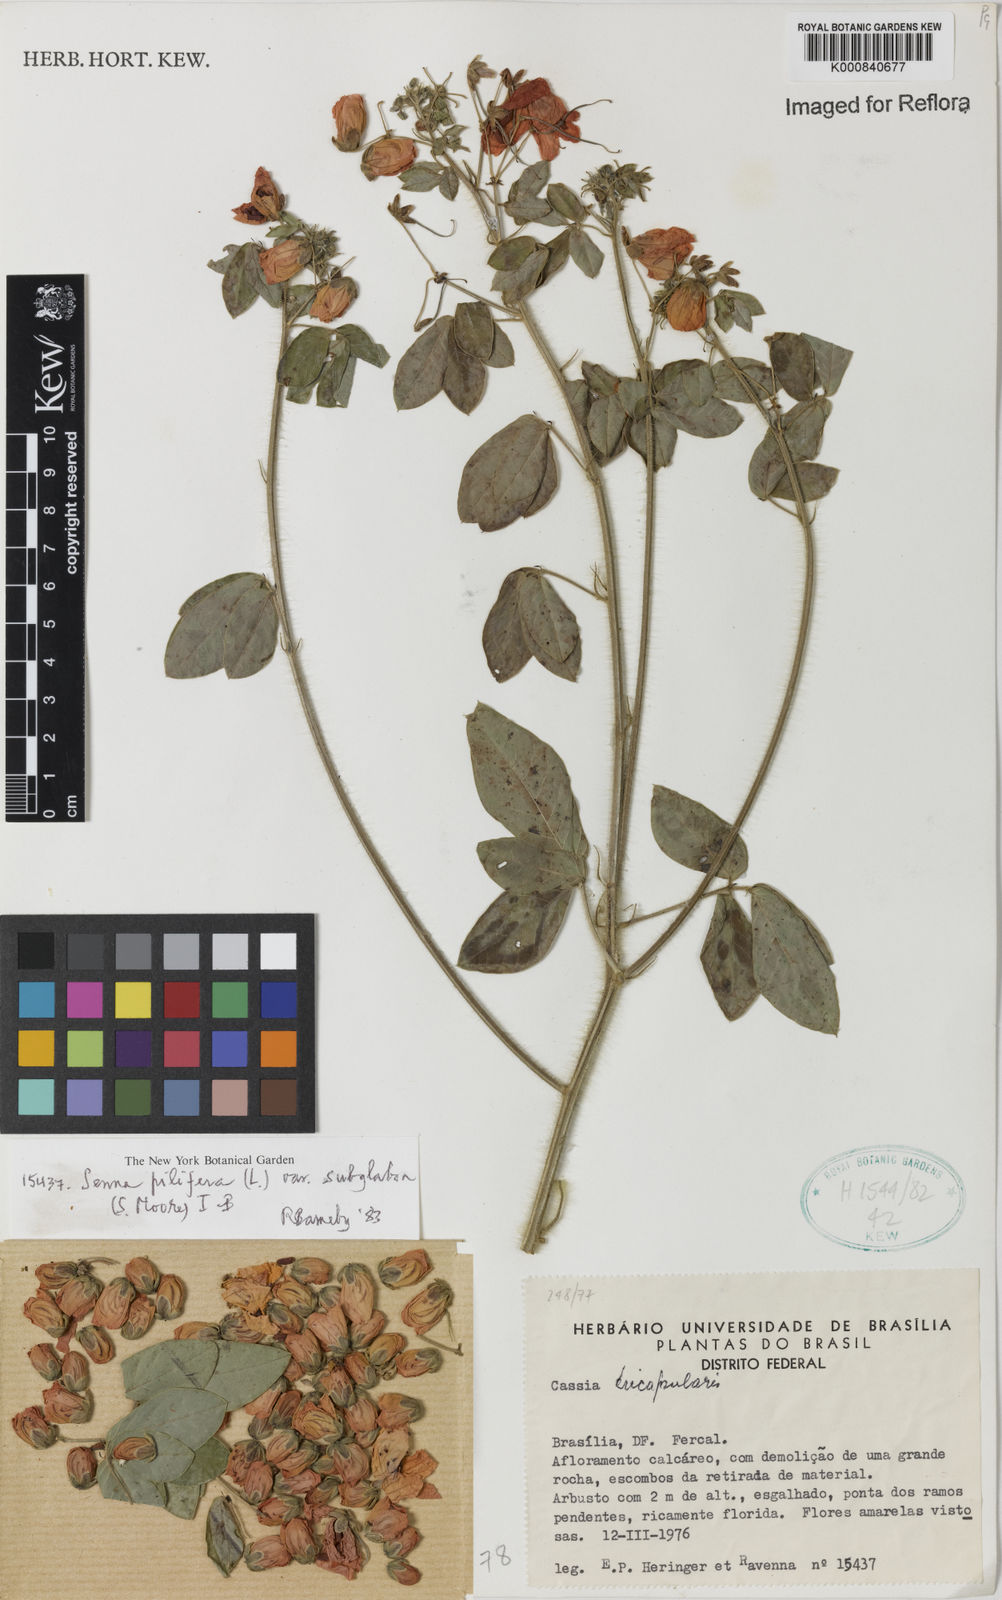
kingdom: Plantae
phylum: Tracheophyta
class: Magnoliopsida
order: Fabales
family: Fabaceae
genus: Senna
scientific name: Senna pilifera
